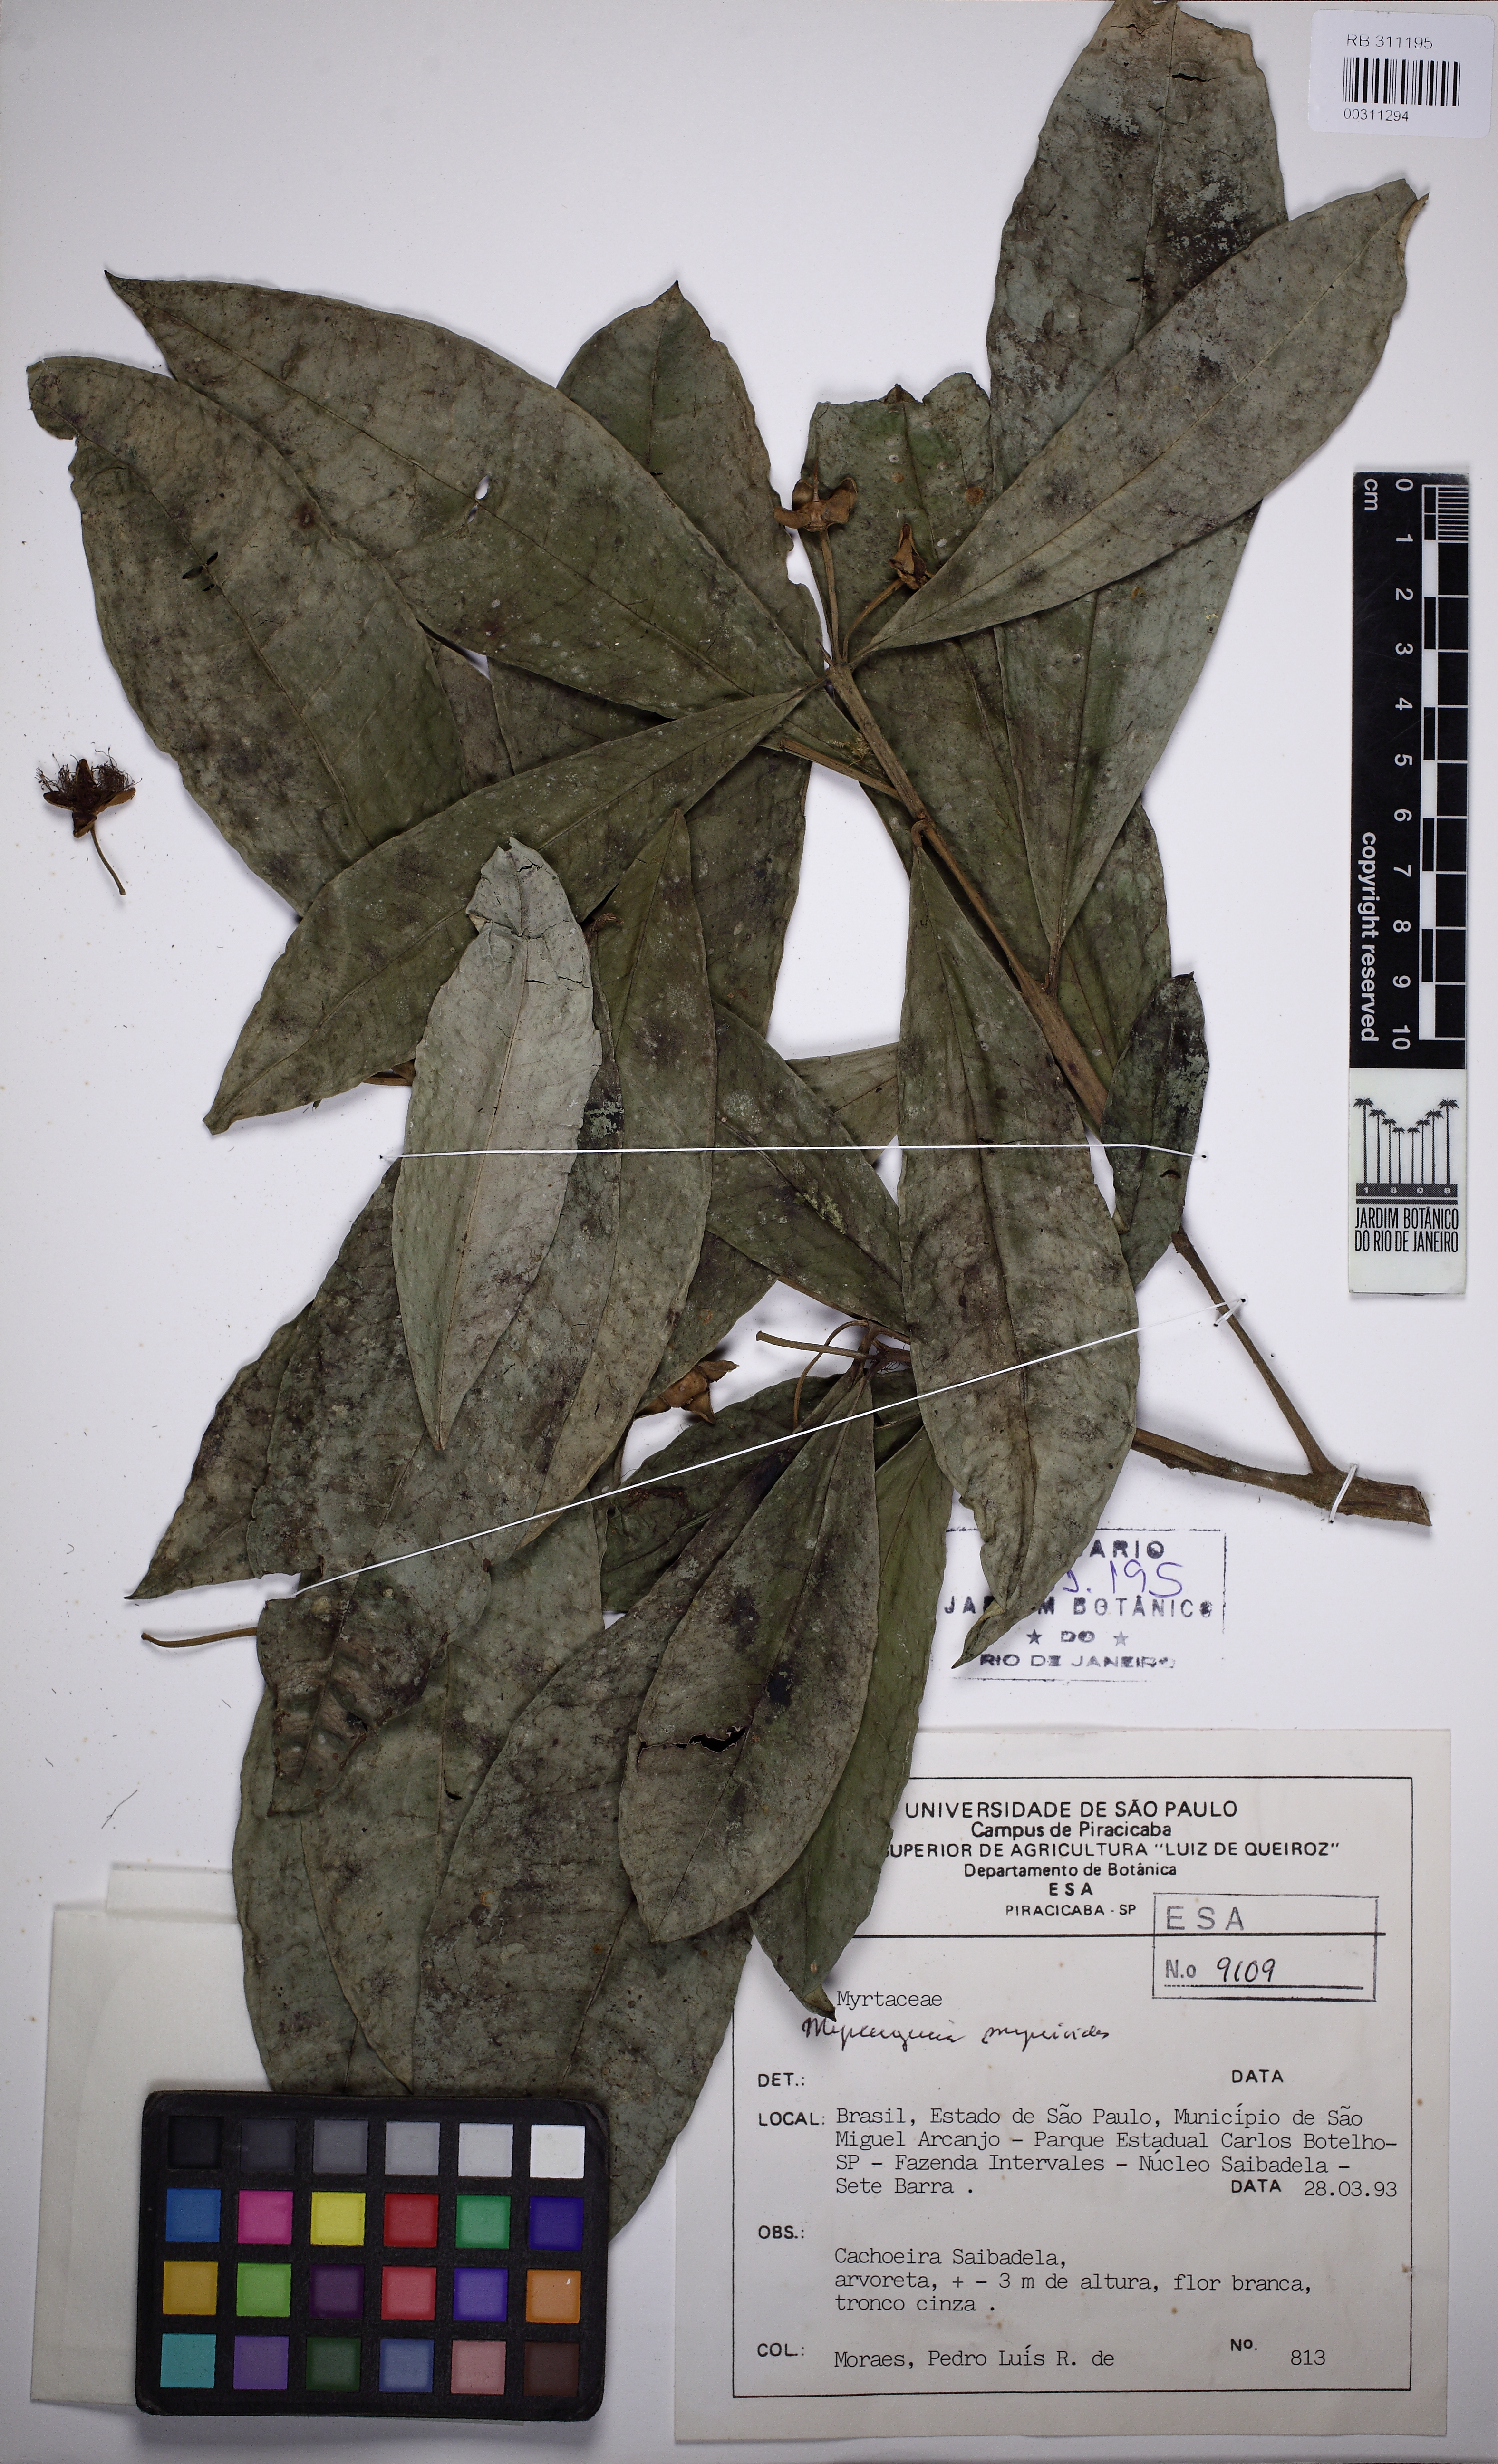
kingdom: Plantae
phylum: Tracheophyta
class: Magnoliopsida
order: Myrtales
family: Myrtaceae
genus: Myrceugenia
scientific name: Myrceugenia myrcioides
